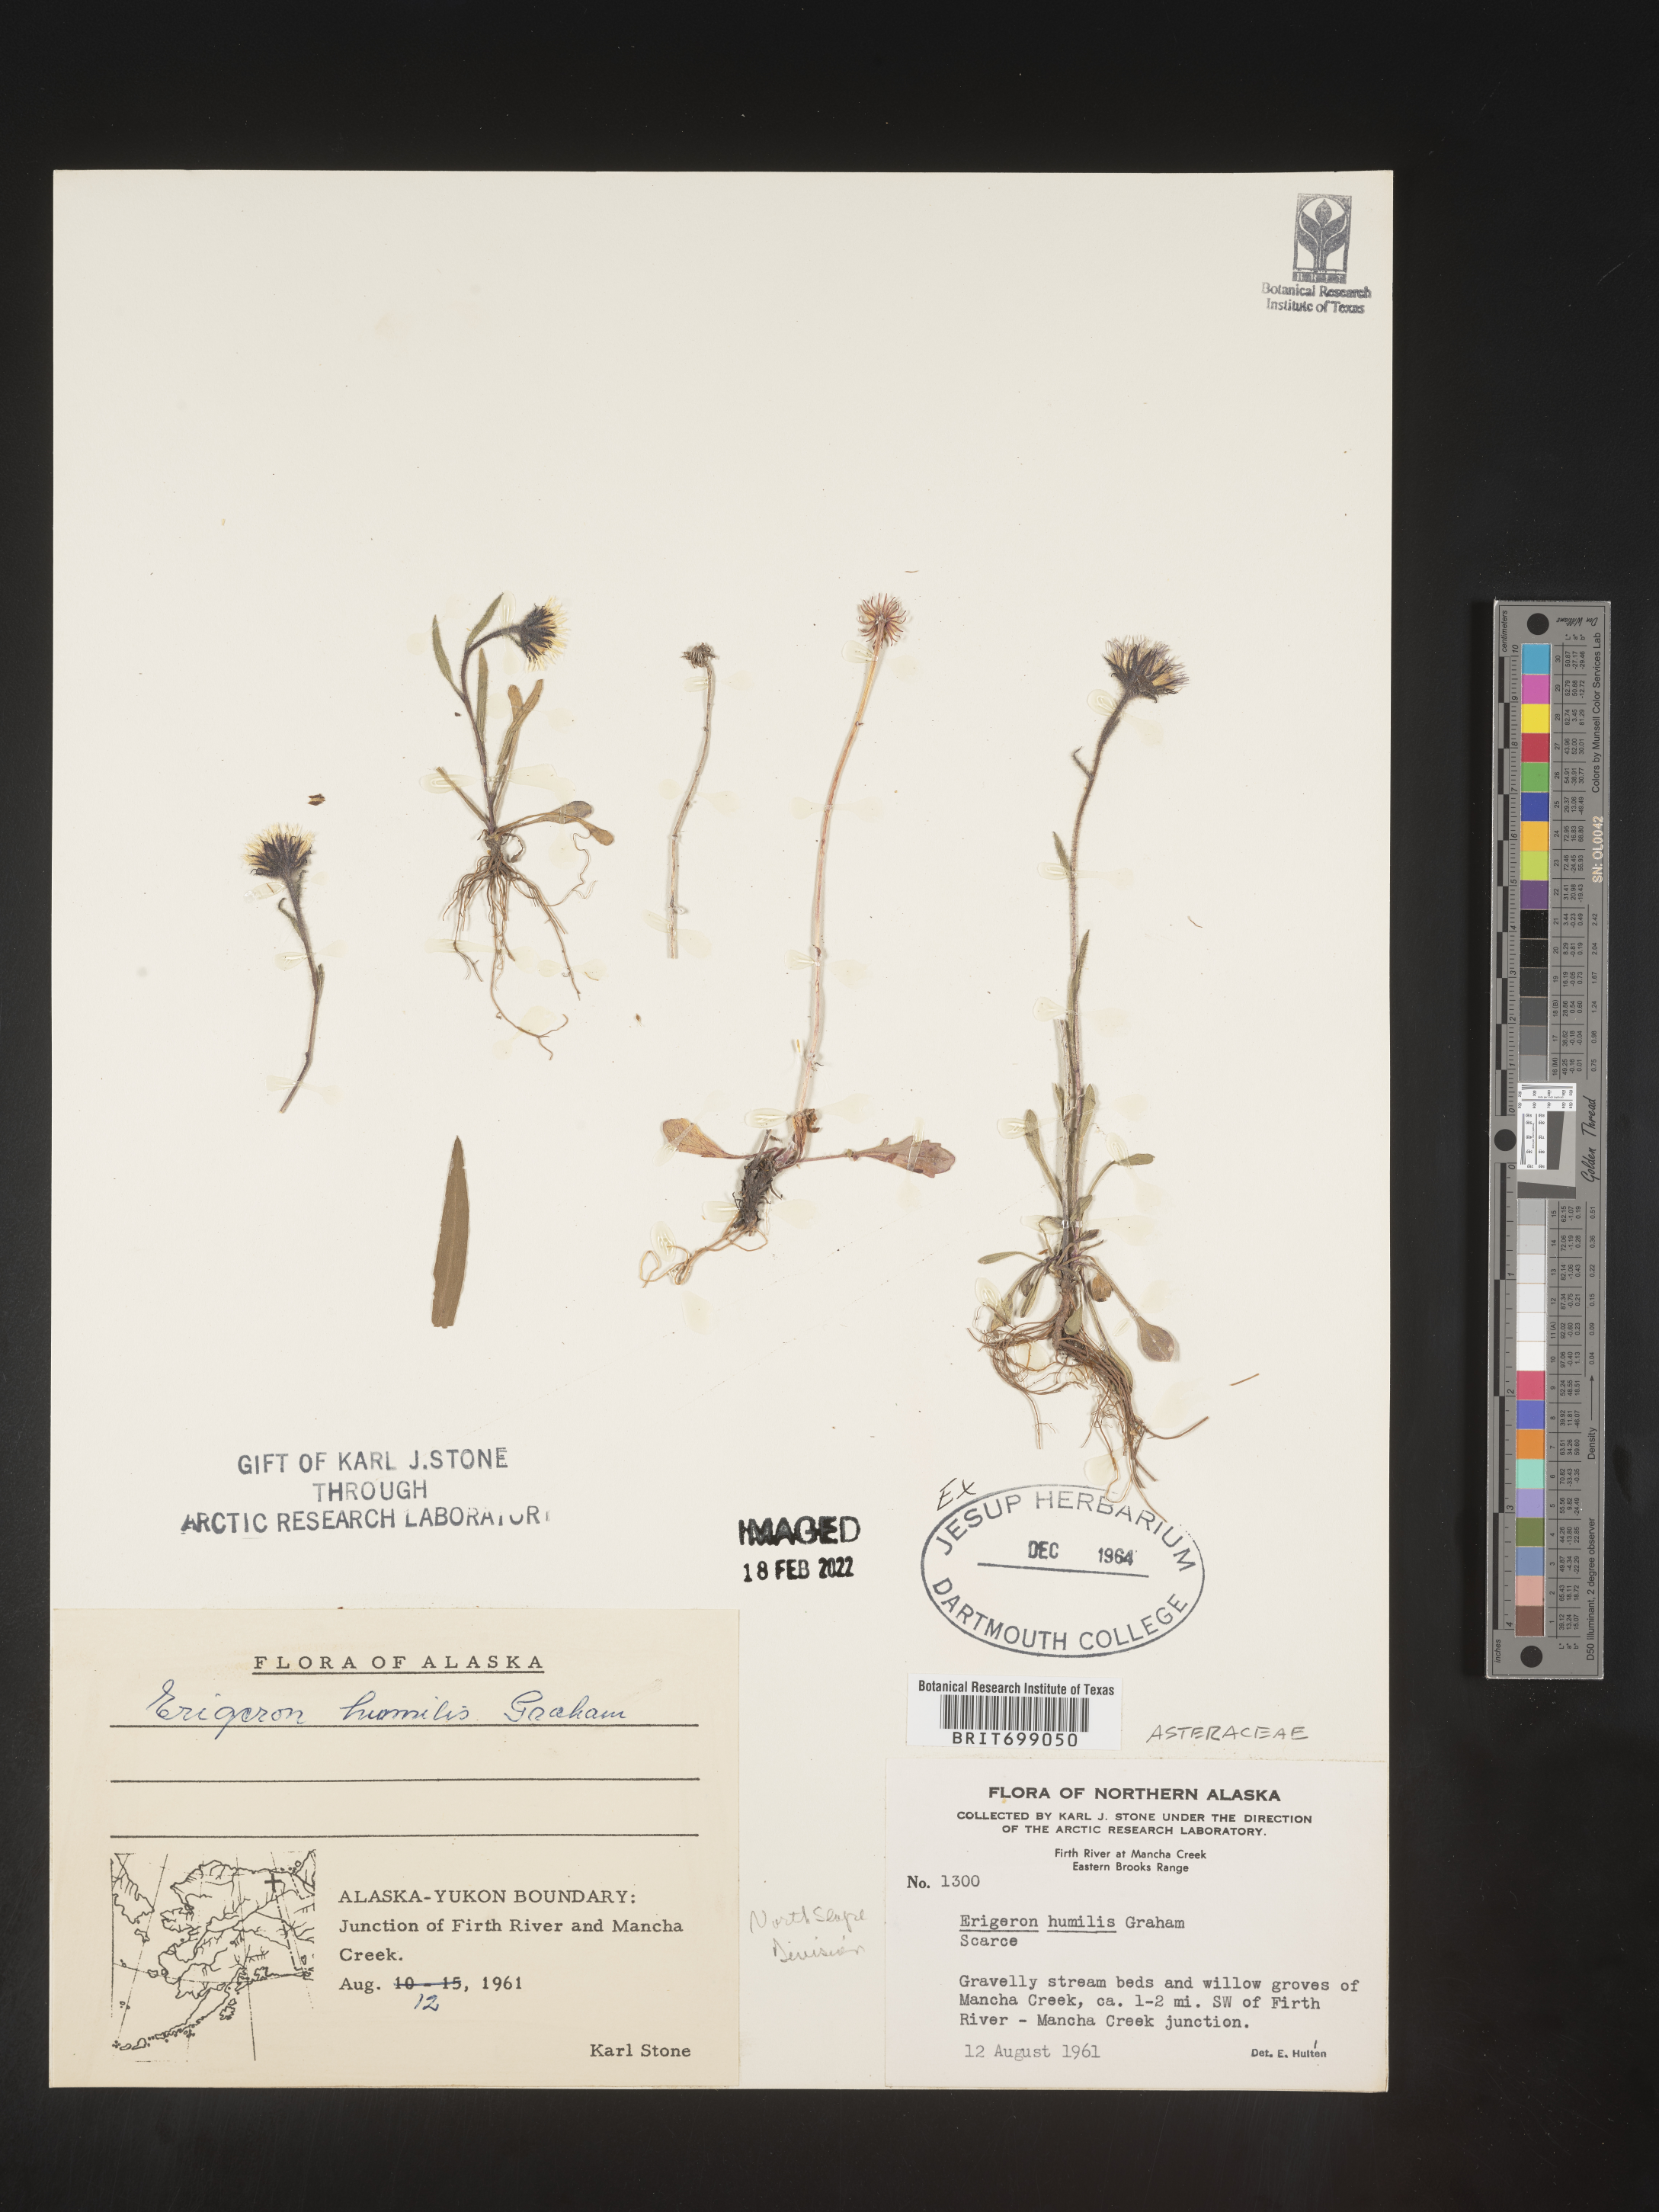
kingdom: Plantae
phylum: Tracheophyta
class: Magnoliopsida
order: Asterales
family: Asteraceae
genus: Erigeron
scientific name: Erigeron humilis
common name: Arctic-alpine fleabane
